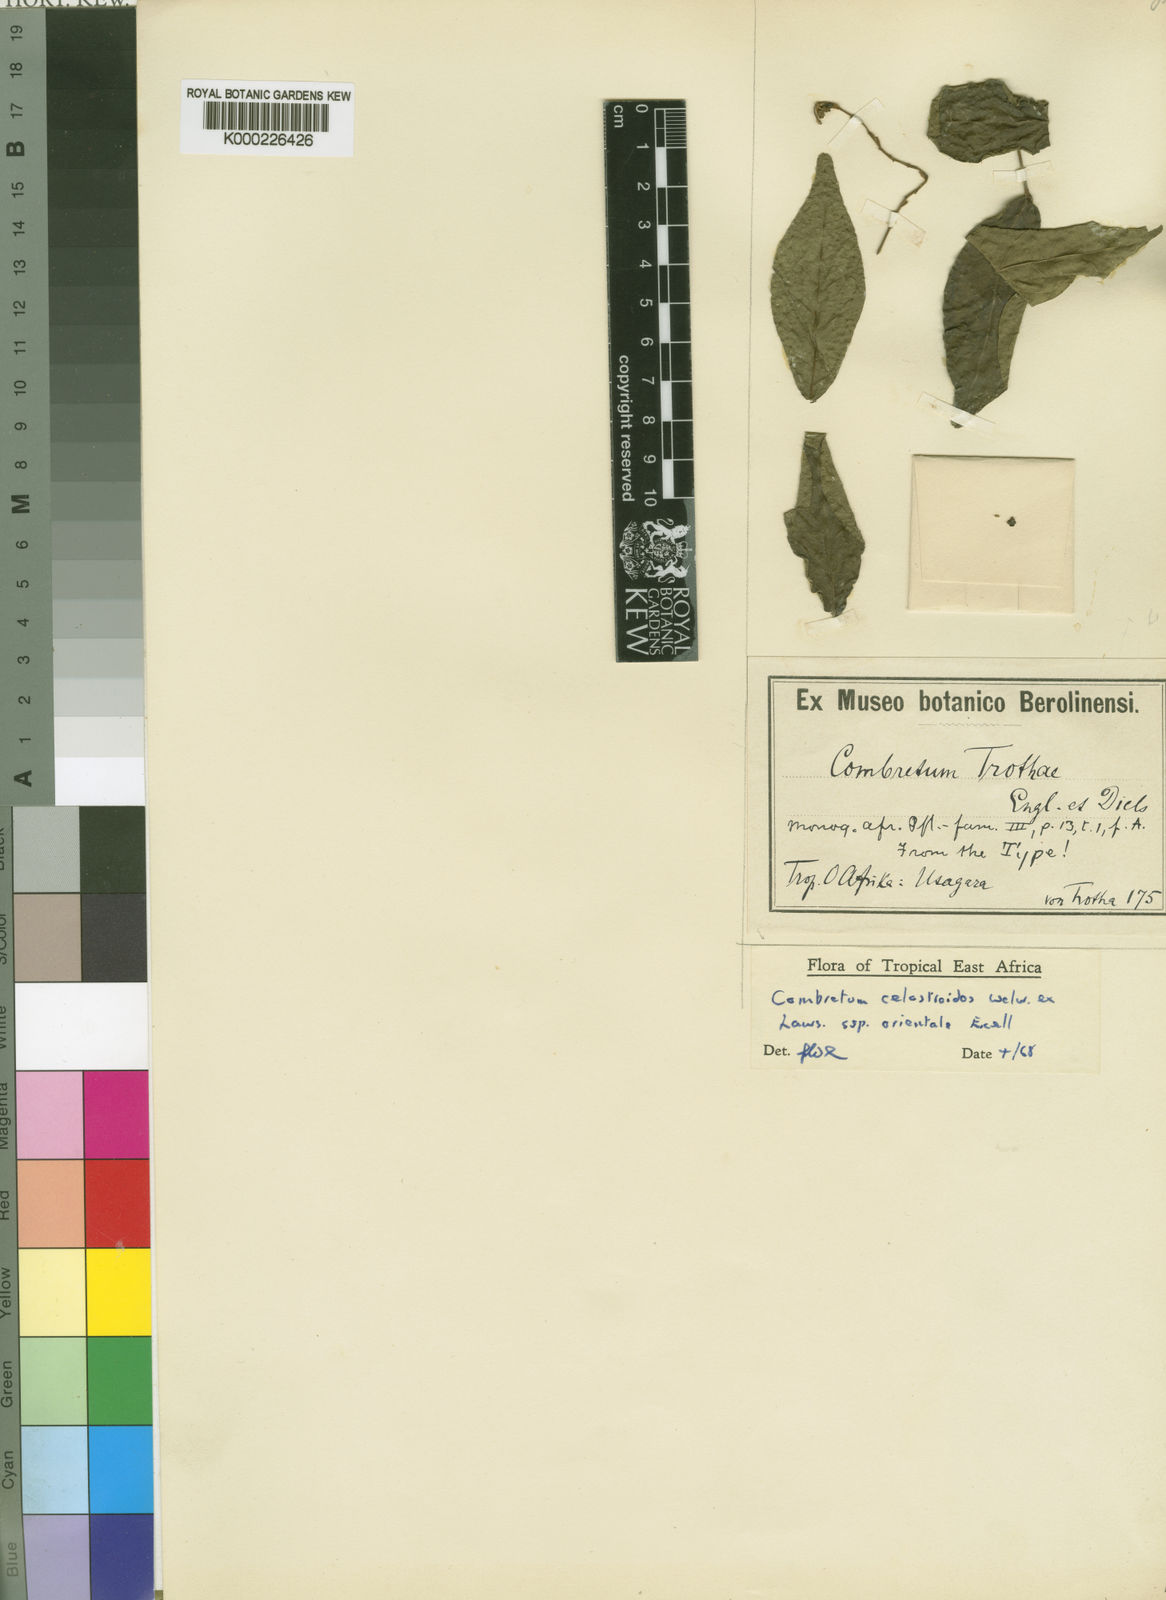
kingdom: Plantae
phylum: Tracheophyta
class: Magnoliopsida
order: Myrtales
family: Combretaceae
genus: Combretum
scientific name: Combretum celastroides
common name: Jesse-bush combretum
